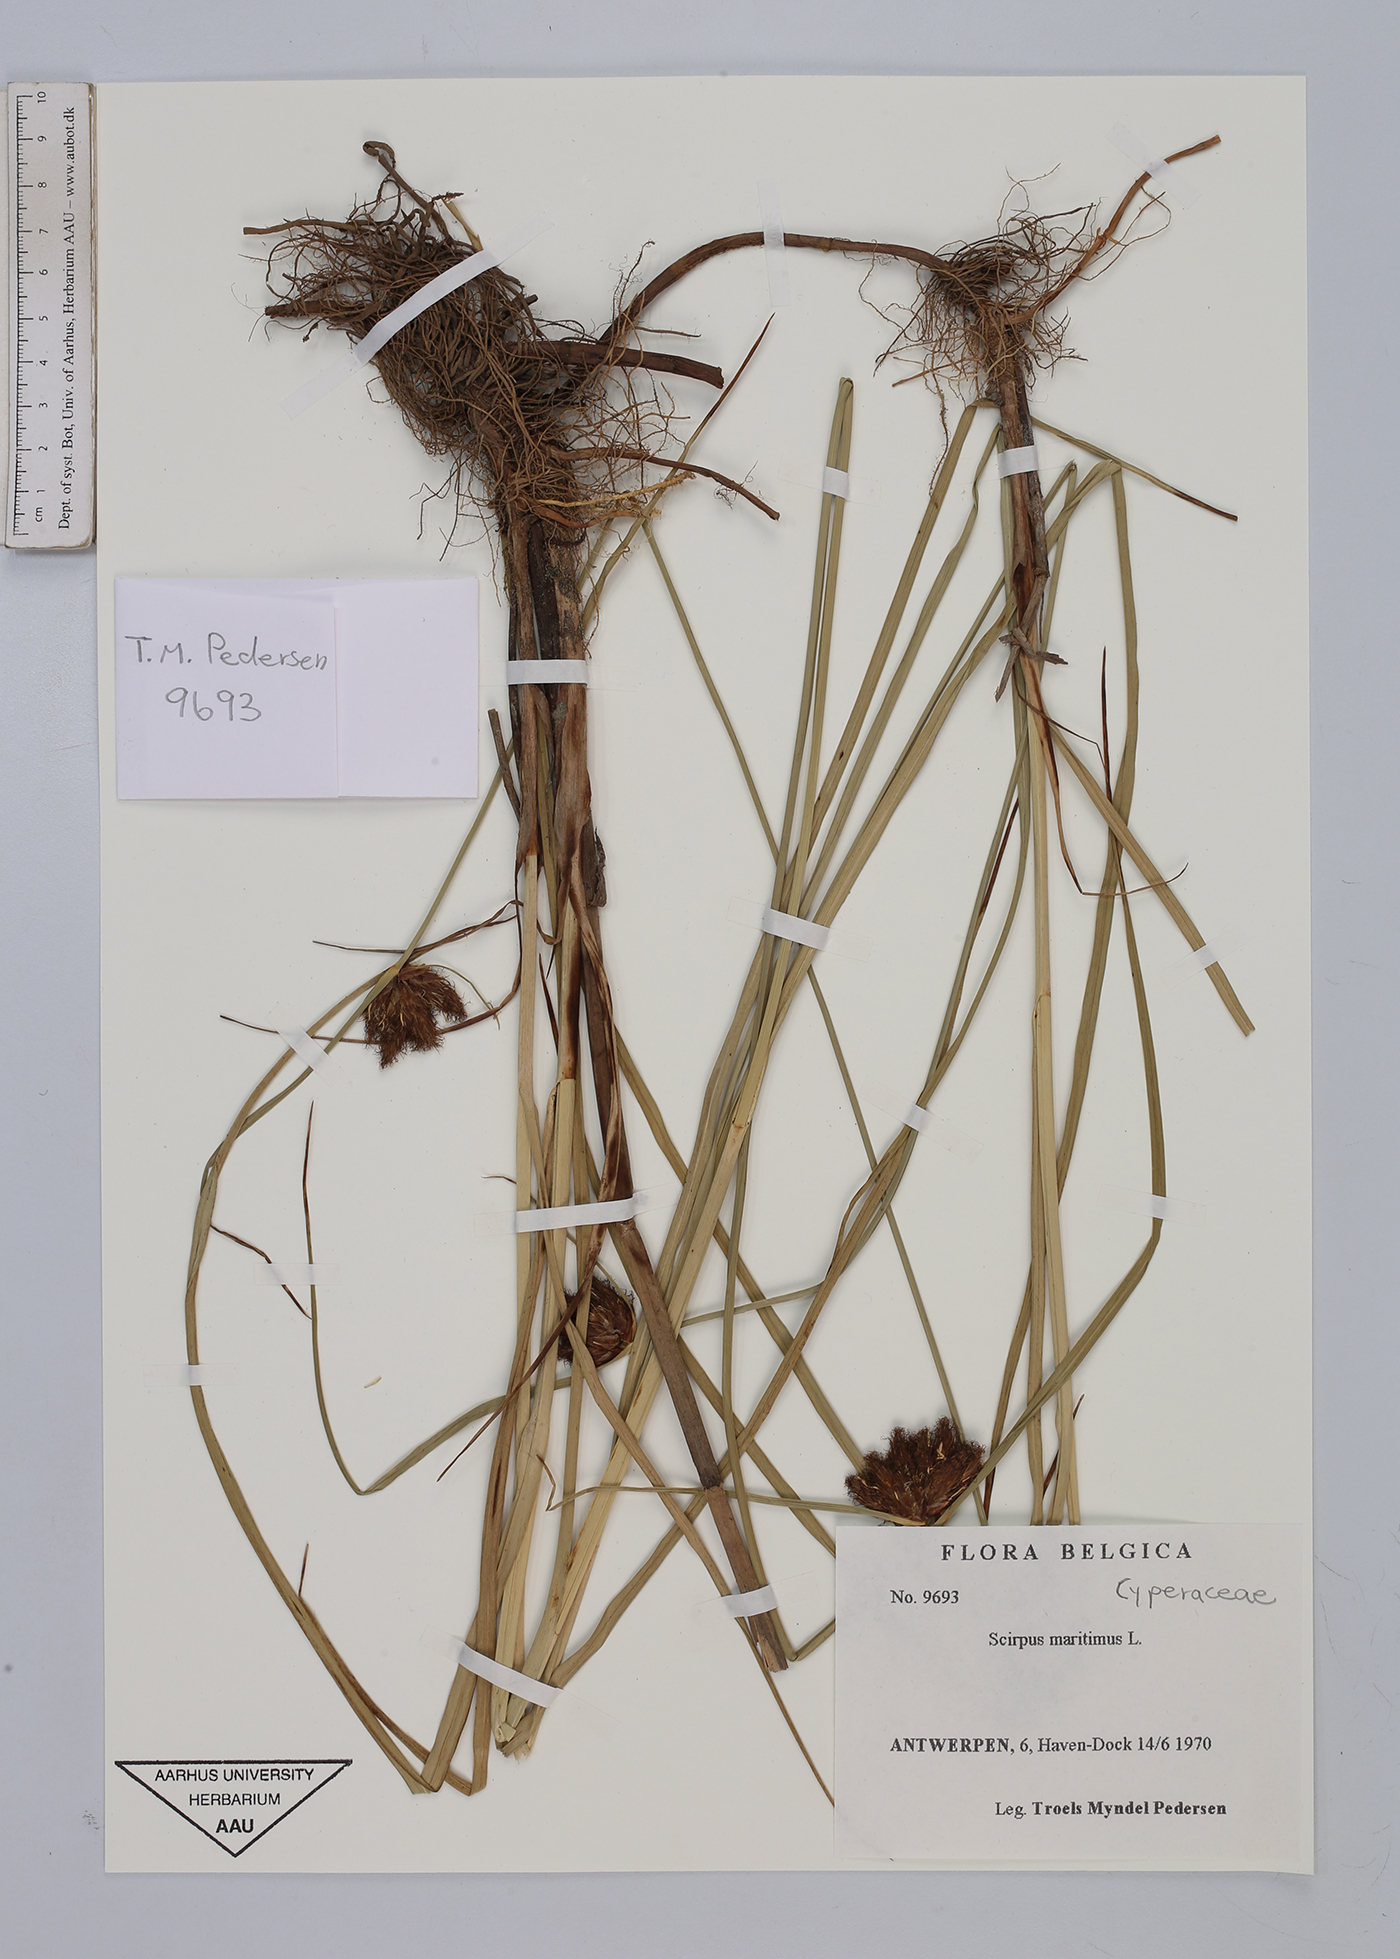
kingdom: Plantae
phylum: Tracheophyta
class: Liliopsida
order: Poales
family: Cyperaceae
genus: Bolboschoenus
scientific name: Bolboschoenus maritimus
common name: Sea club-rush
